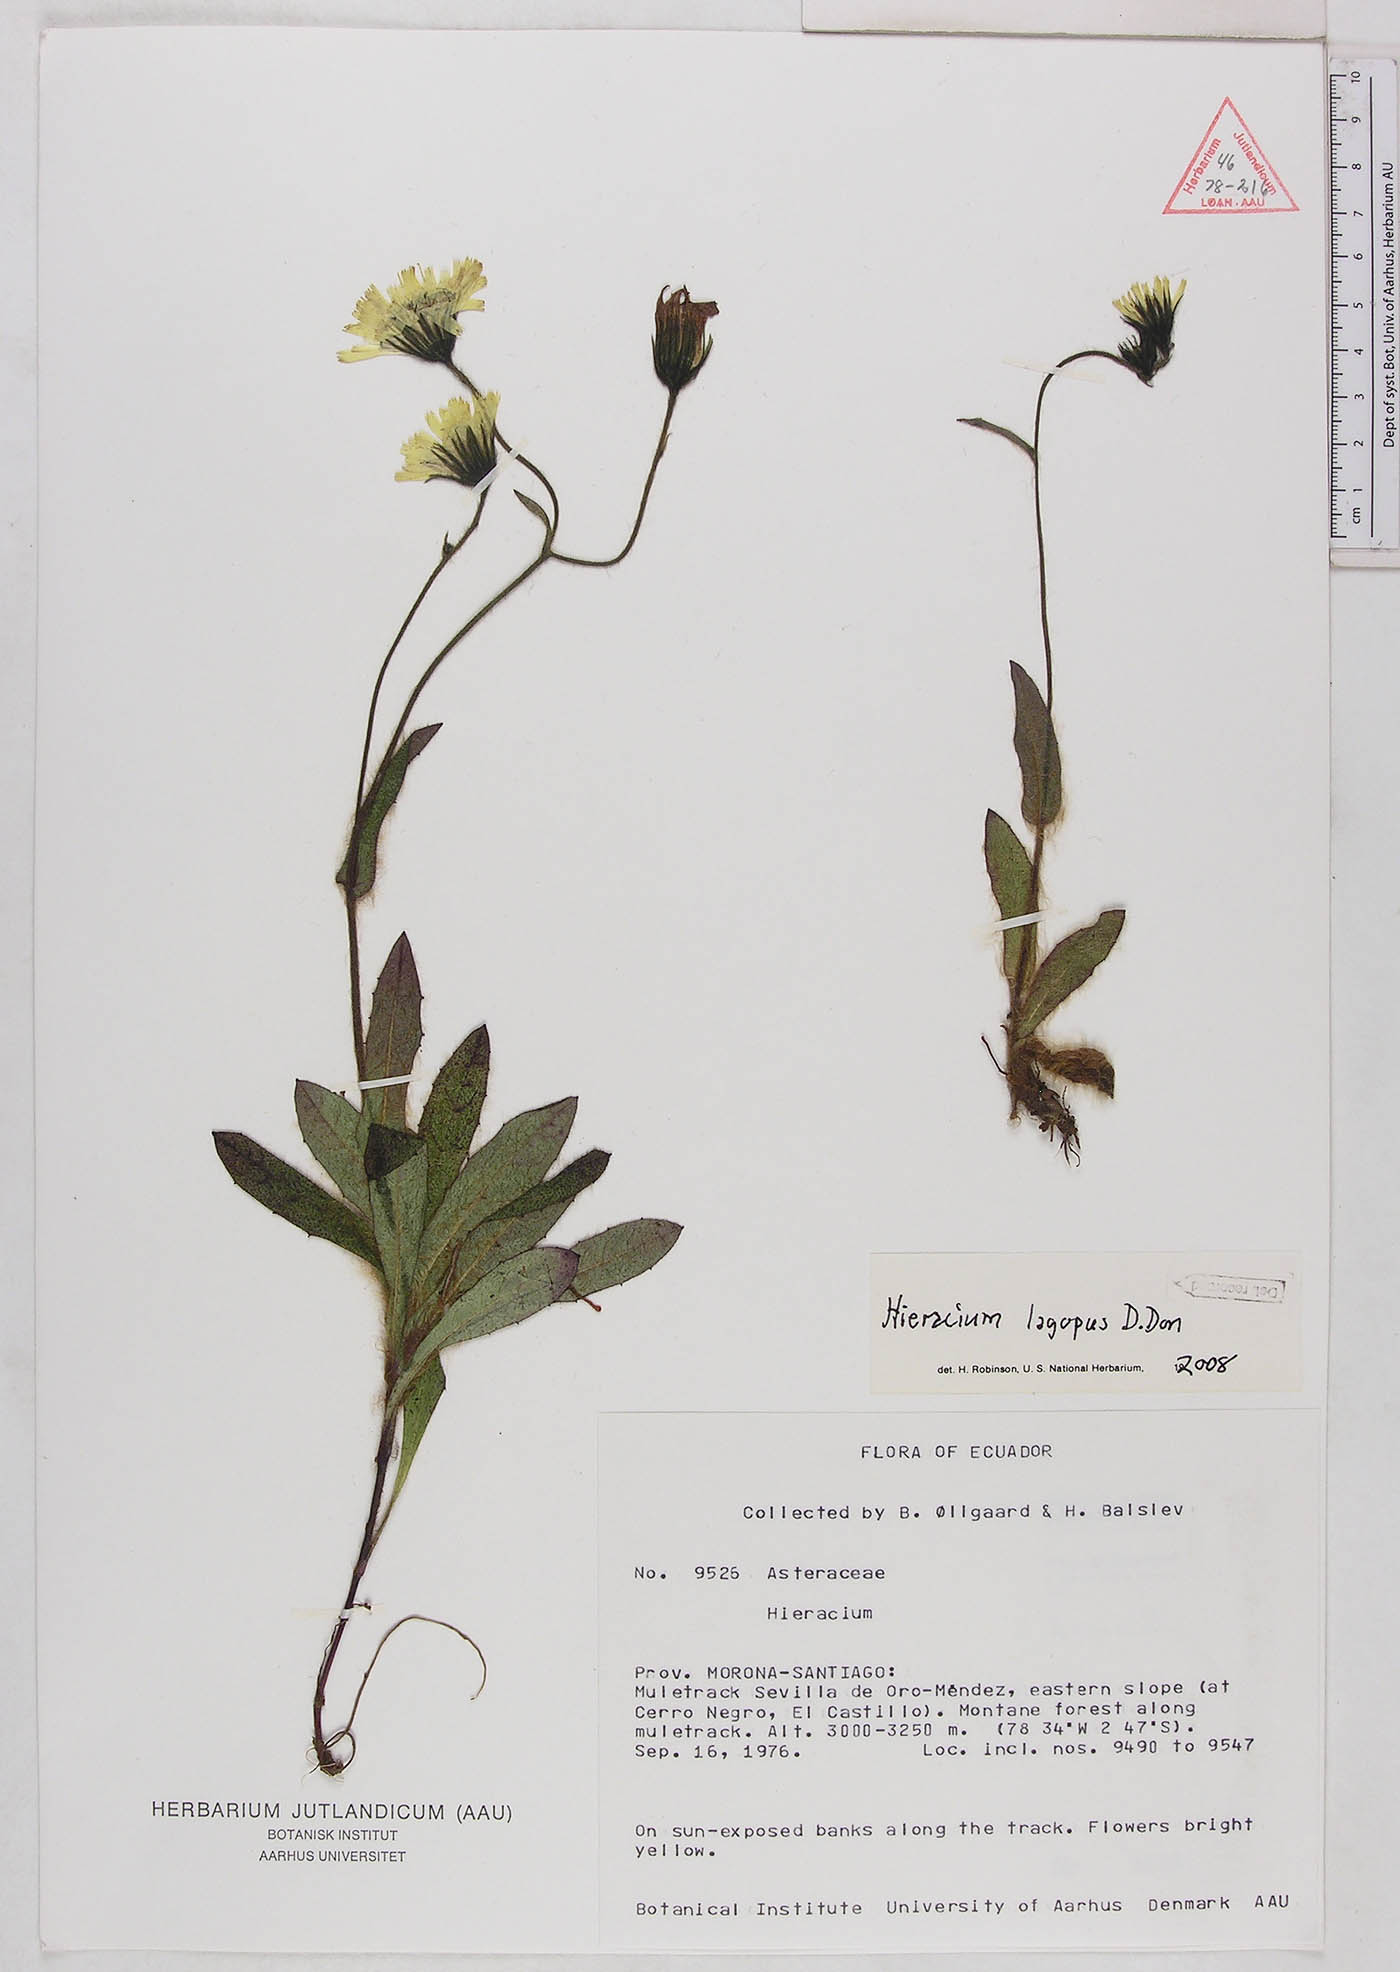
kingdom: Plantae
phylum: Tracheophyta
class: Magnoliopsida
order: Asterales
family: Asteraceae
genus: Hieracium
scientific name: Hieracium lagopus
